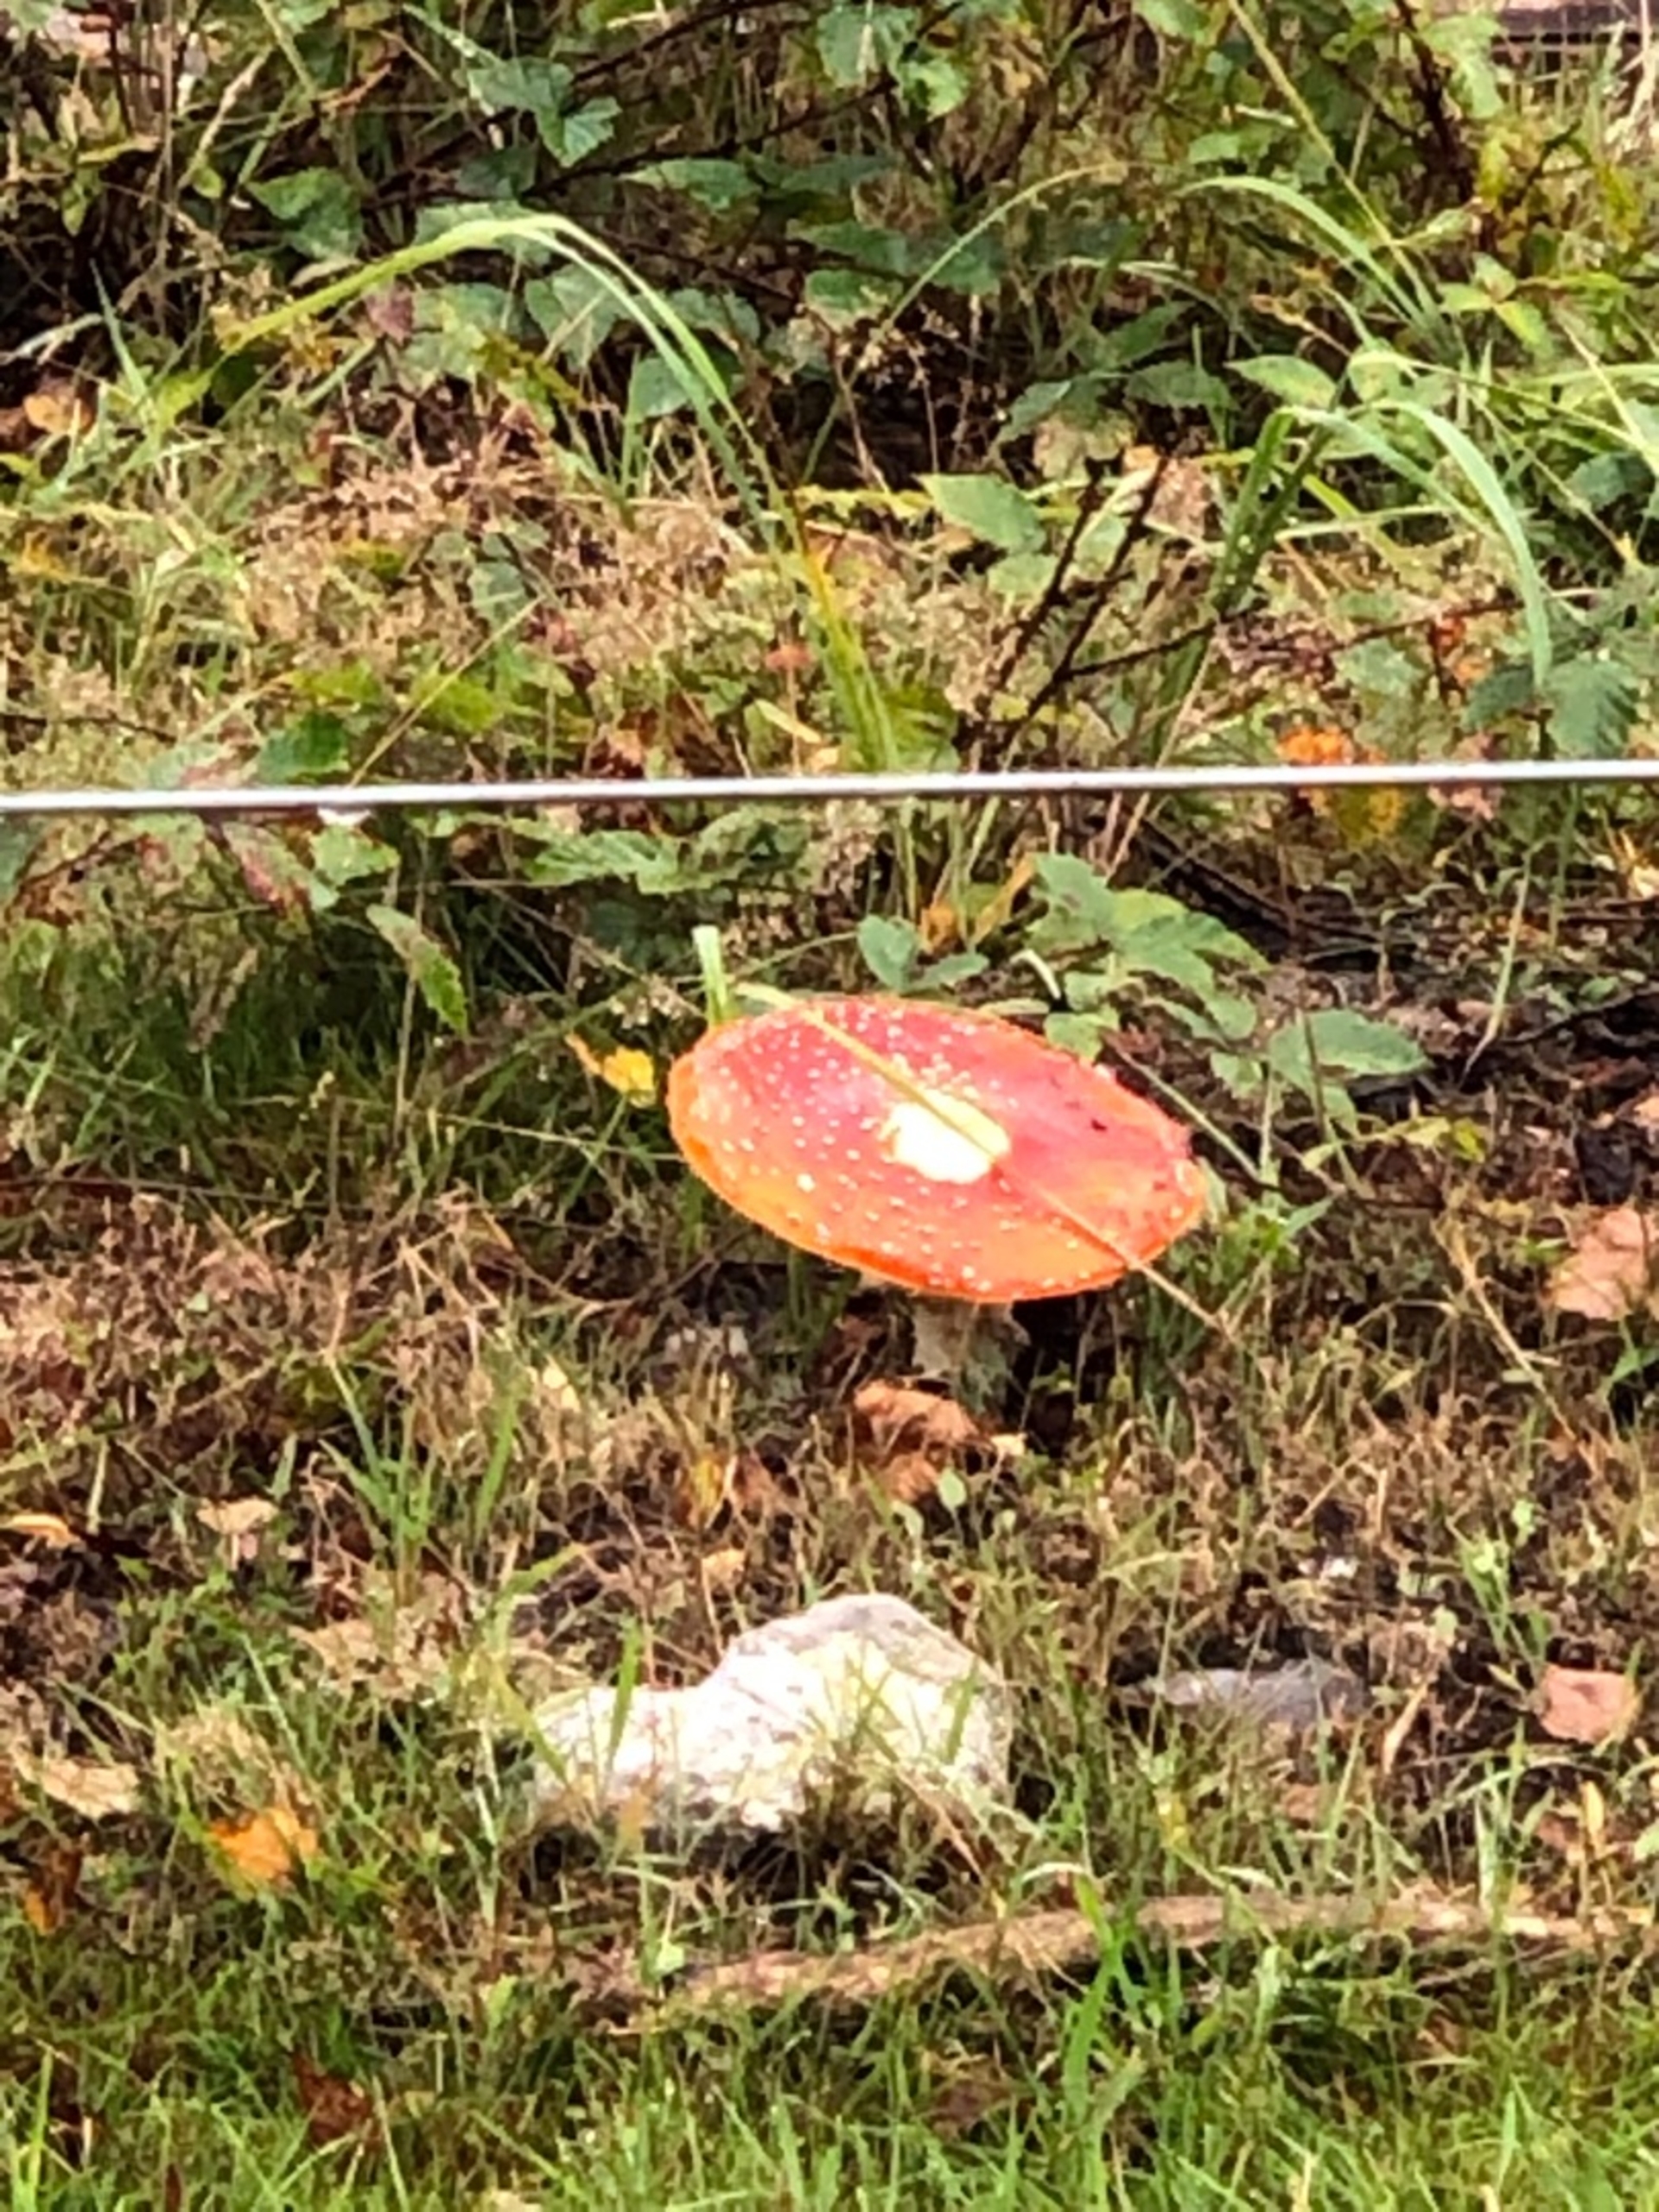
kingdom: Fungi
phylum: Basidiomycota
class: Agaricomycetes
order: Agaricales
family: Amanitaceae
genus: Amanita
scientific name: Amanita muscaria
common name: Rød fluesvamp
